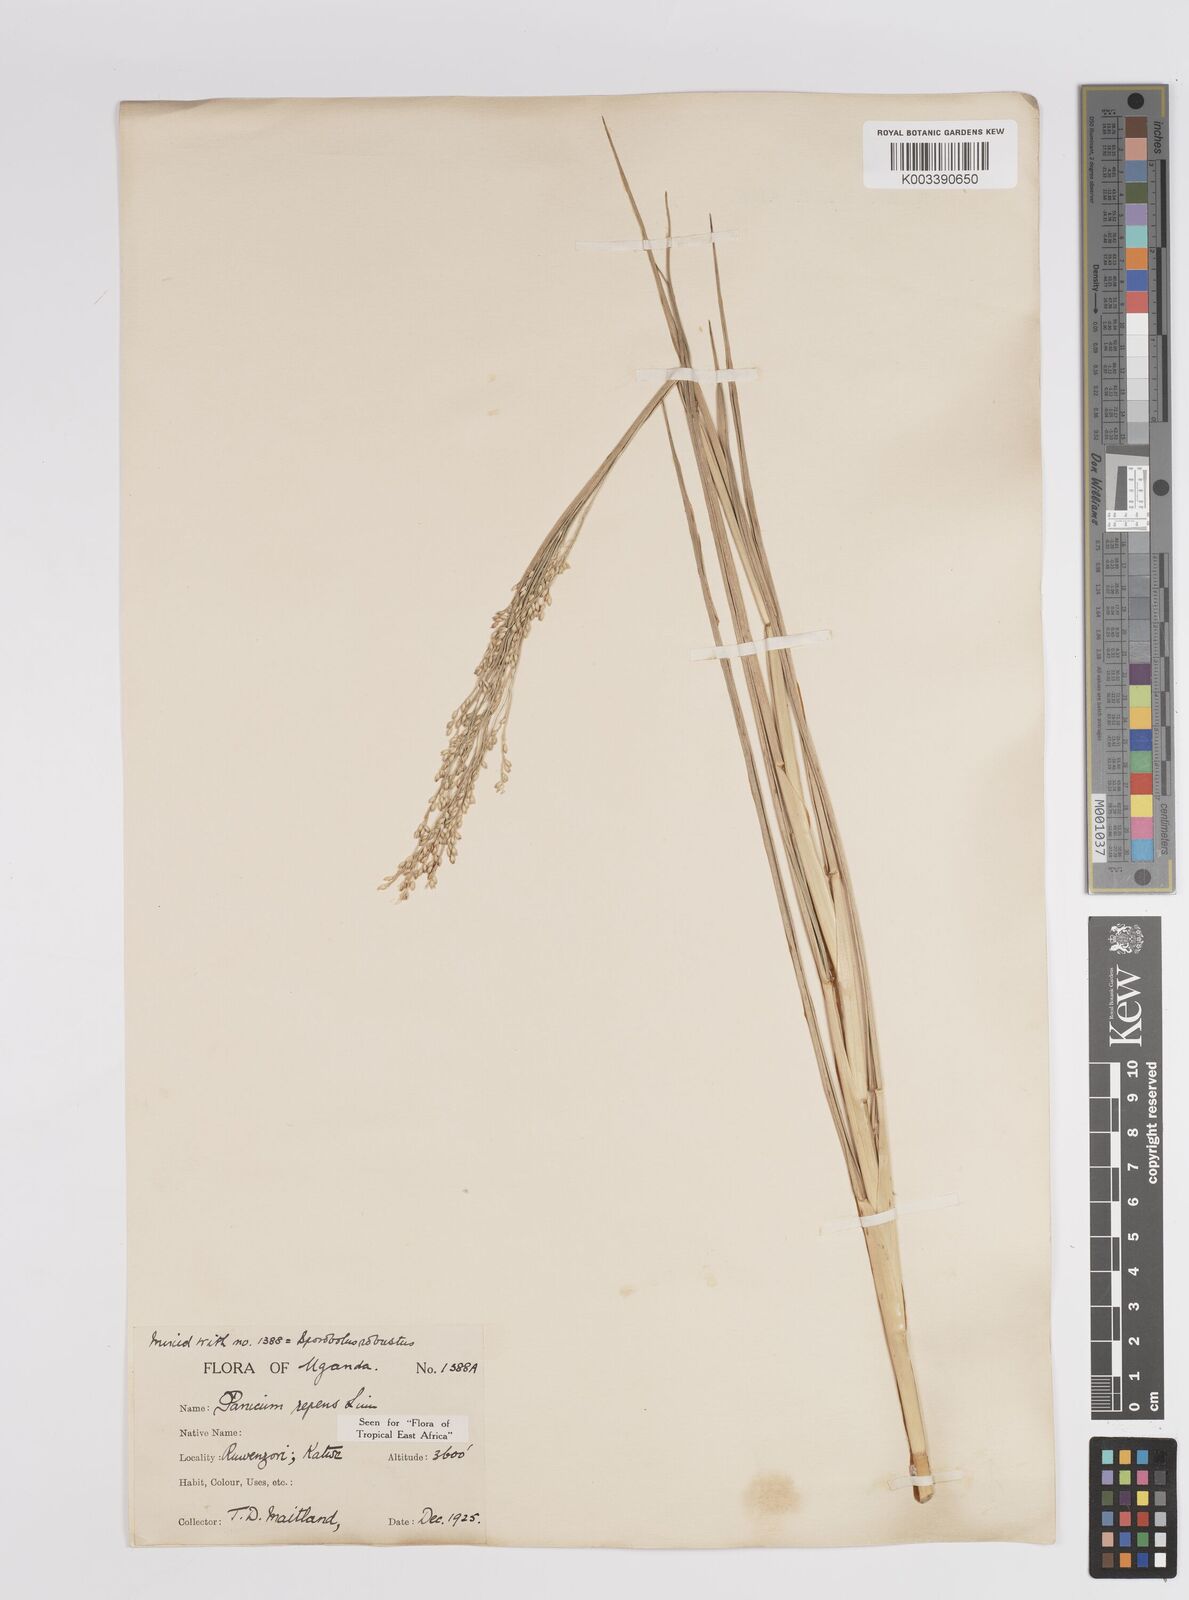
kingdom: Plantae
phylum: Tracheophyta
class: Liliopsida
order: Poales
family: Poaceae
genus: Panicum
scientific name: Panicum repens
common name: Torpedo grass
